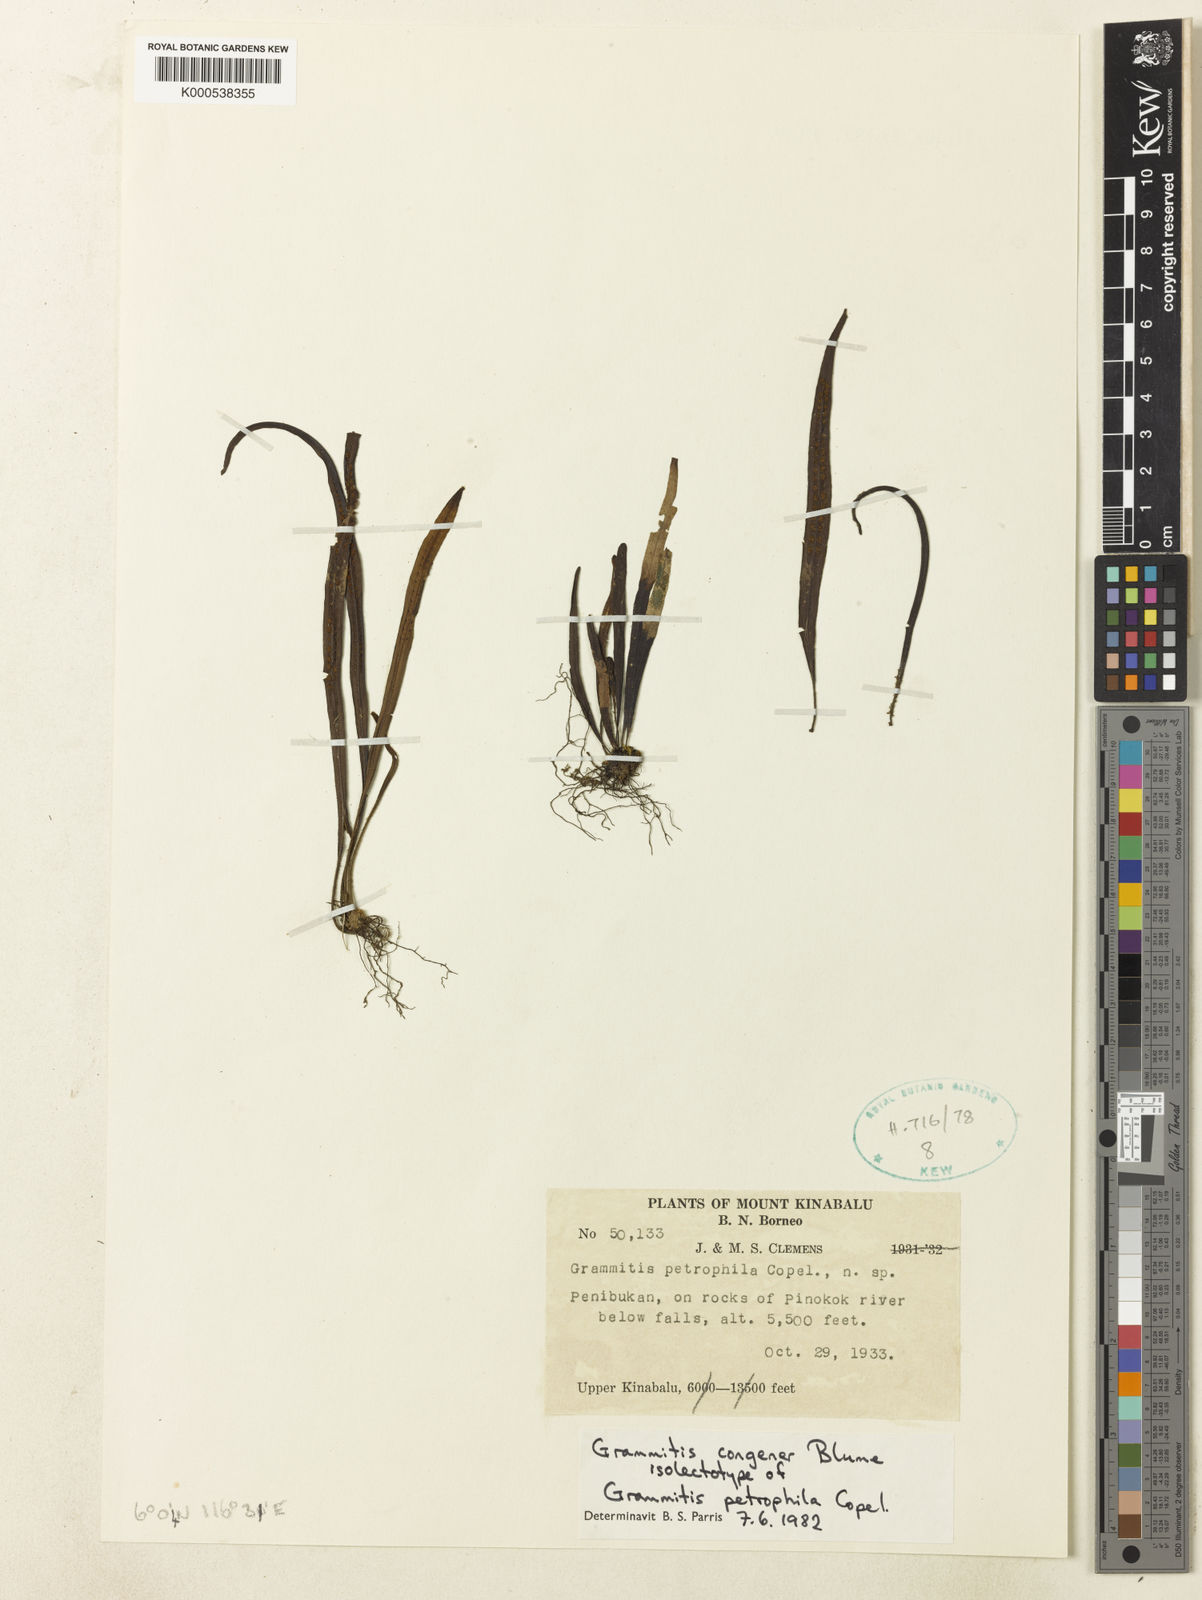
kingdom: Plantae
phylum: Tracheophyta
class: Polypodiopsida
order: Polypodiales
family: Polypodiaceae
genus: Oreogrammitis
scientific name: Oreogrammitis congener
